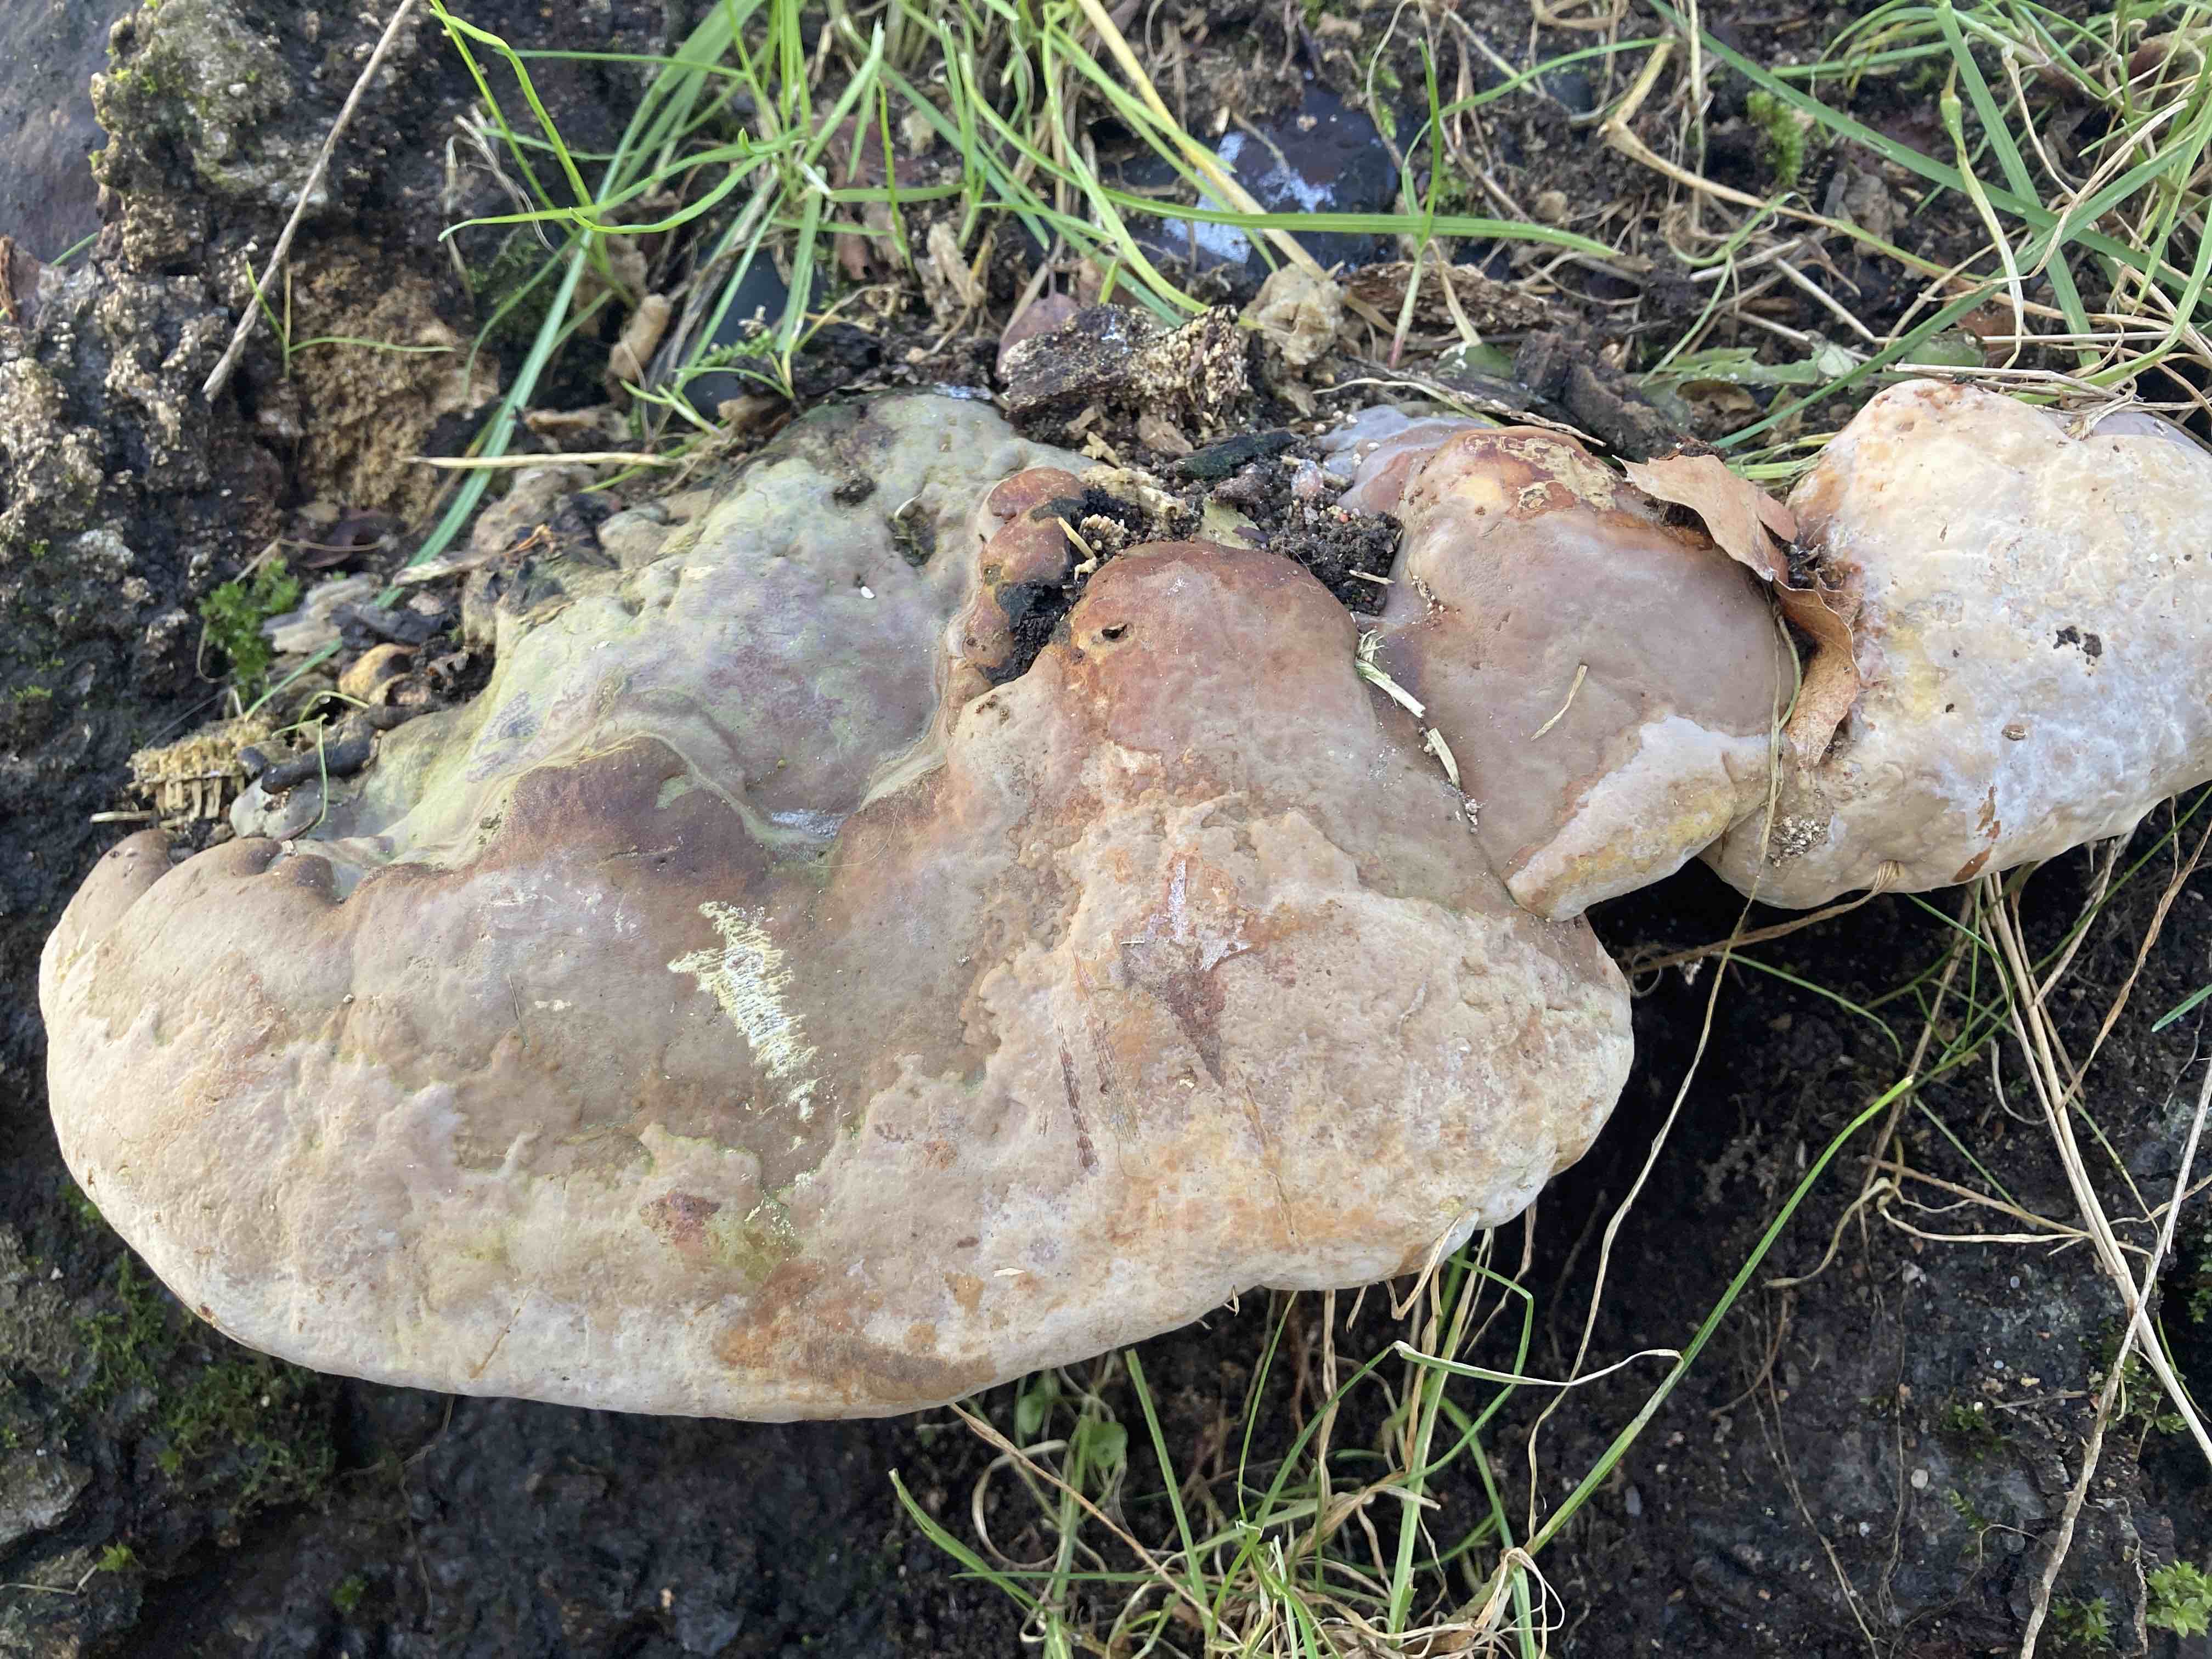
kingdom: Fungi
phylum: Basidiomycota
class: Agaricomycetes
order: Polyporales
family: Polyporaceae
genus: Ganoderma
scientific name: Ganoderma pfeifferi
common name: kobberrød lakporesvamp
